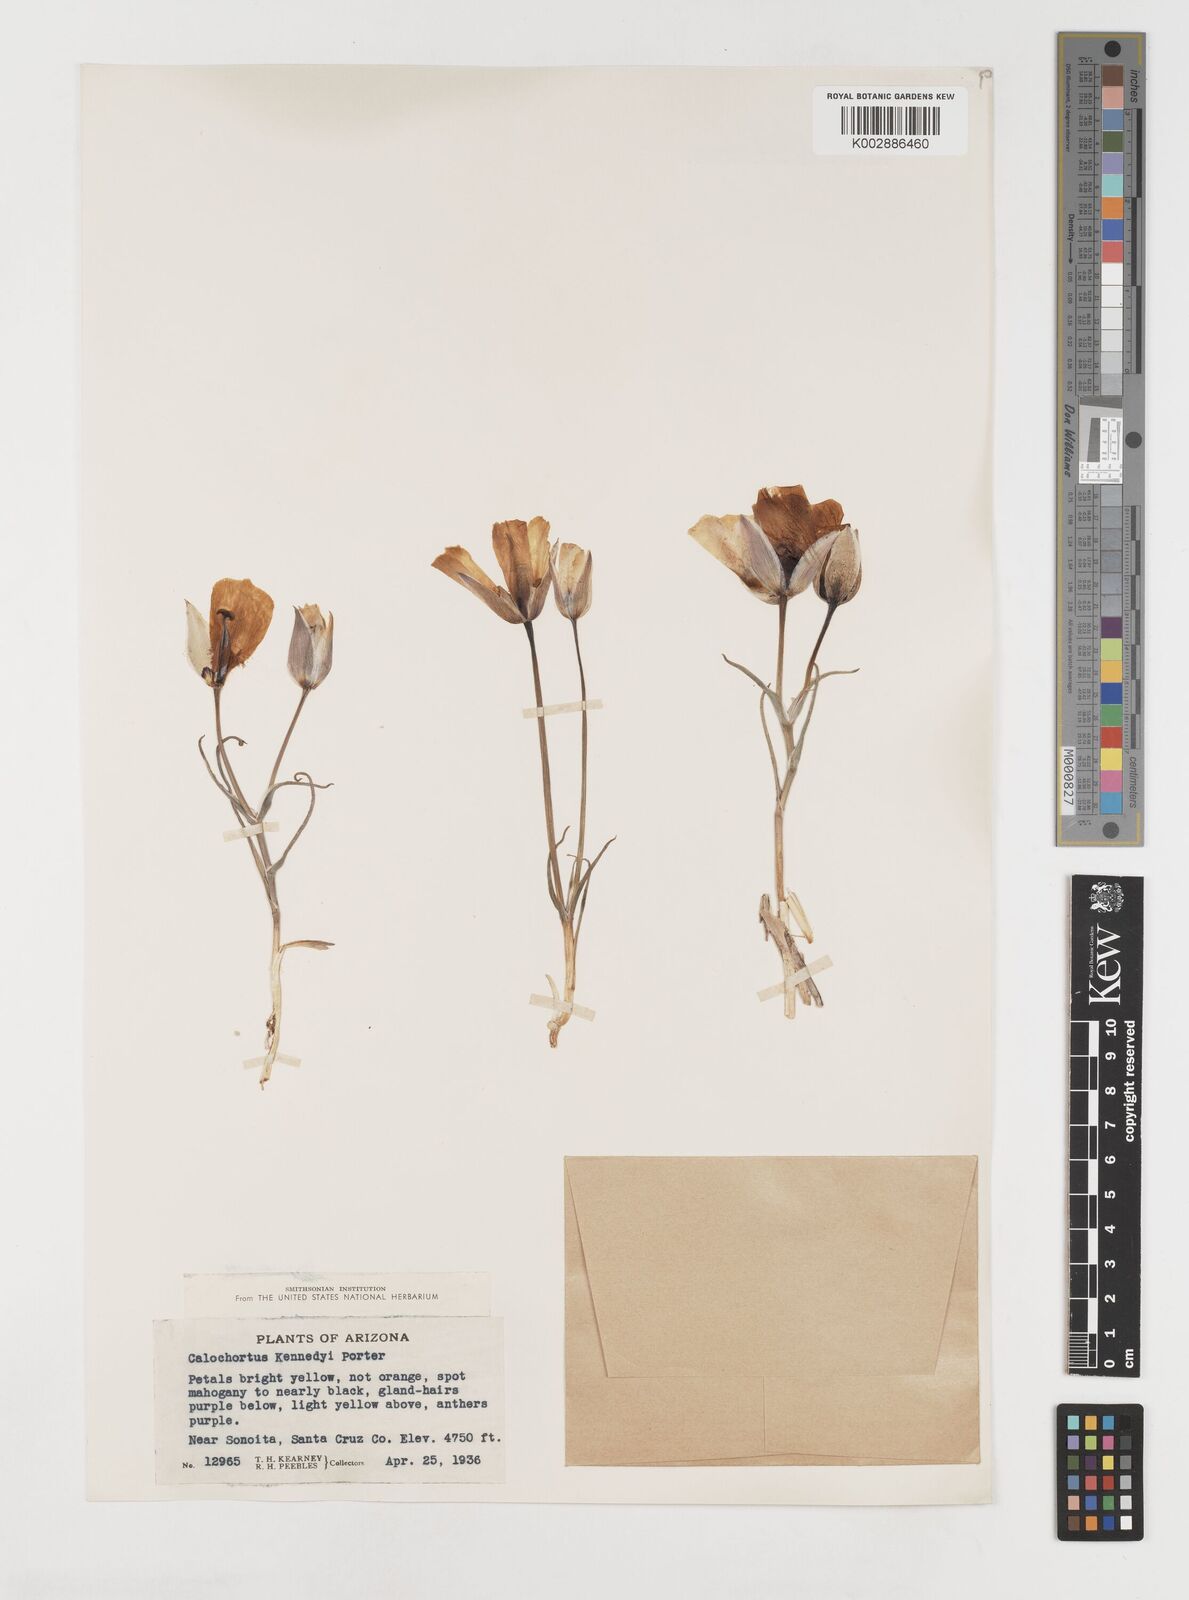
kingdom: Plantae
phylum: Tracheophyta
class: Liliopsida
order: Liliales
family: Liliaceae
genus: Calochortus
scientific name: Calochortus kennedyi
